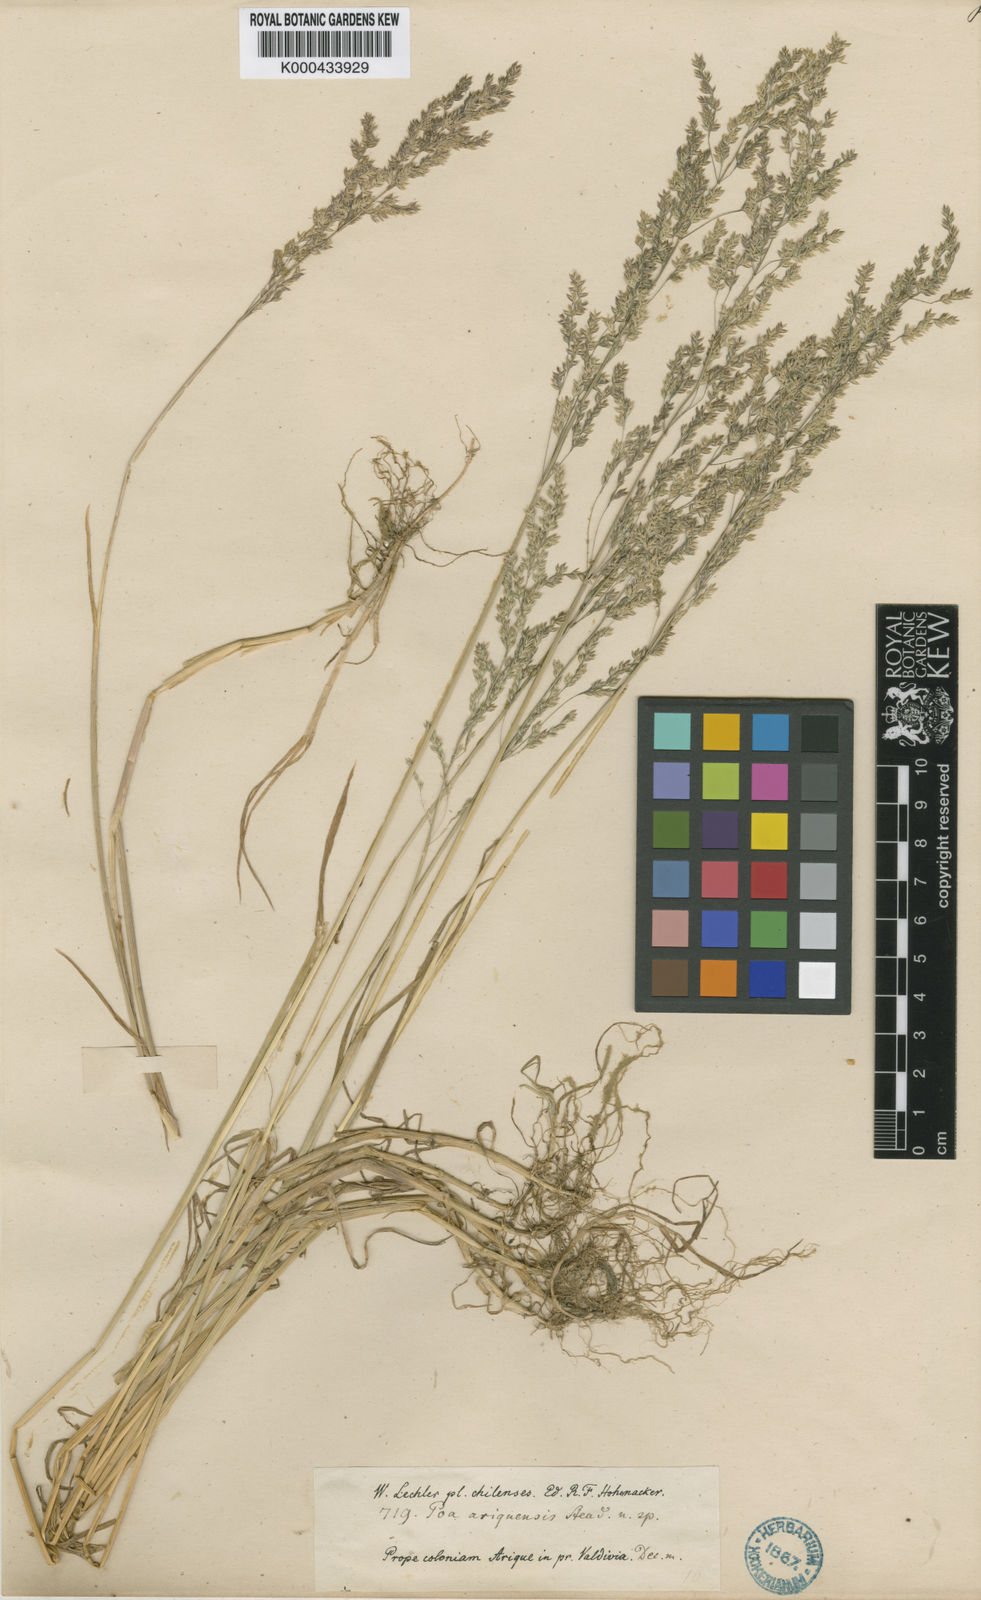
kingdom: Plantae
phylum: Tracheophyta
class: Liliopsida
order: Poales
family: Poaceae
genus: Poa
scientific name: Poa trivialis
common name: Rough bluegrass
